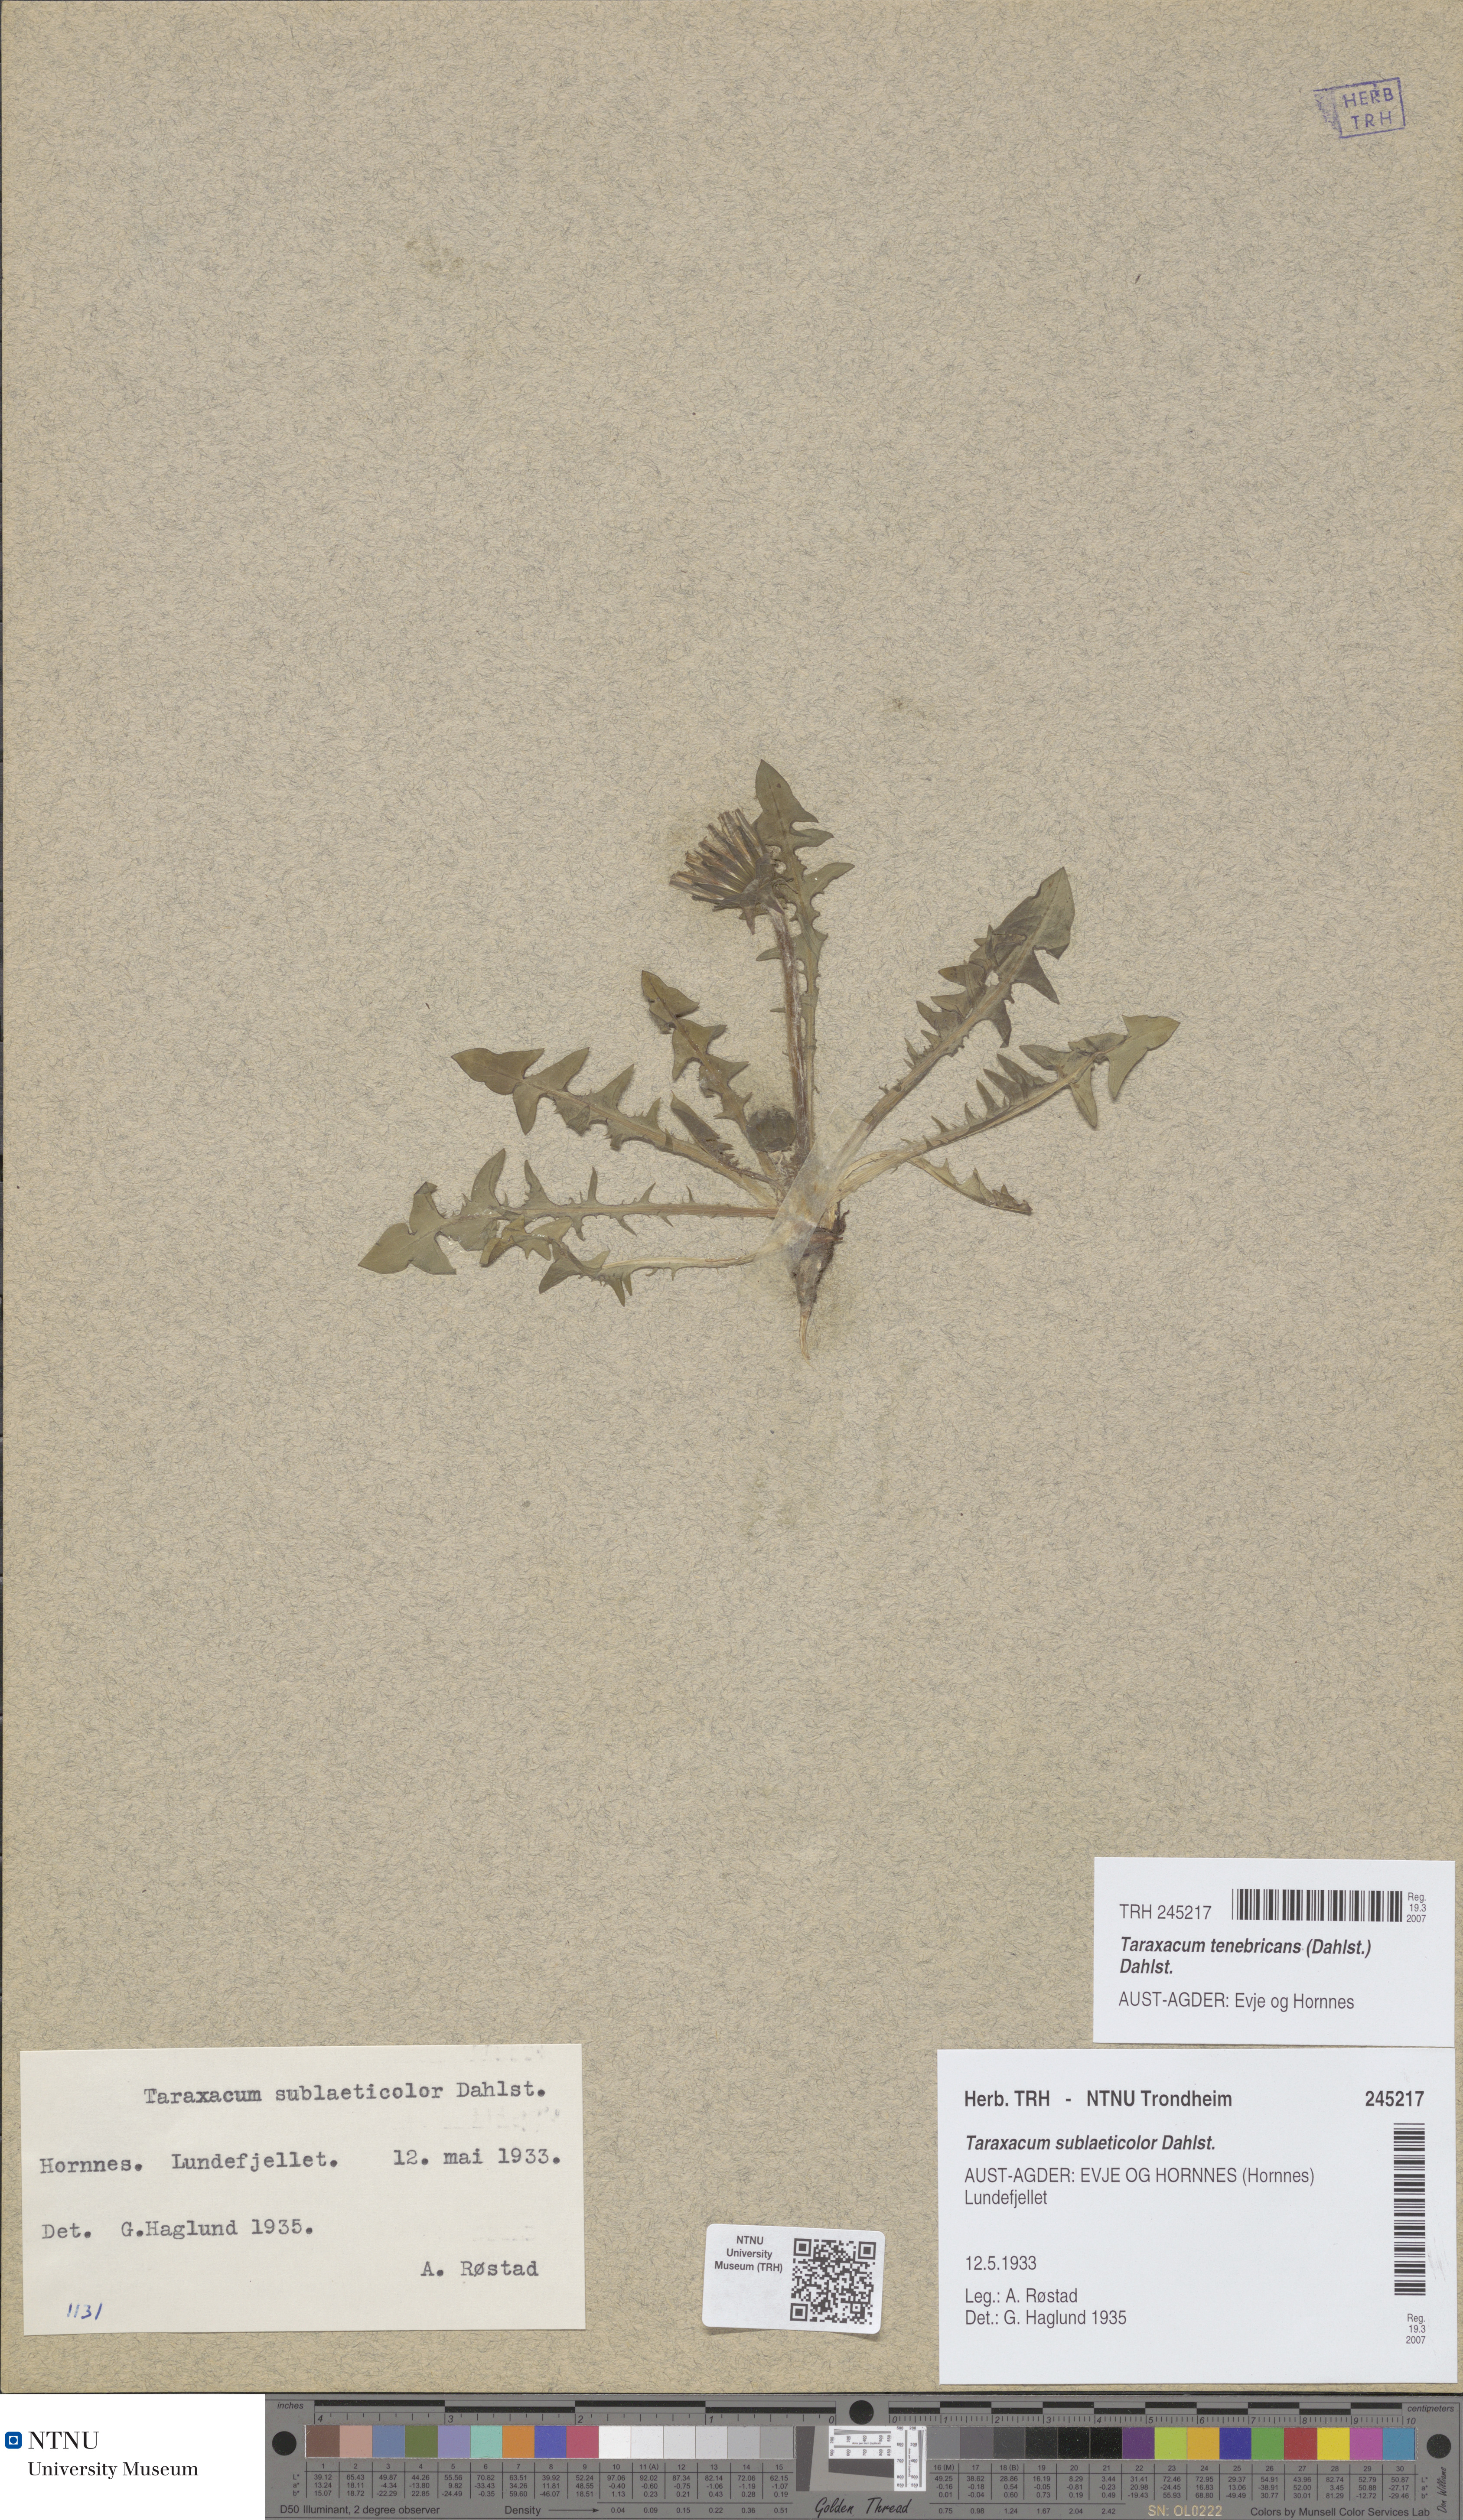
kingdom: Plantae
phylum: Tracheophyta
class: Magnoliopsida
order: Asterales
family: Asteraceae
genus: Taraxacum
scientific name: Taraxacum sublaeticolor
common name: Small-headed dandelion
